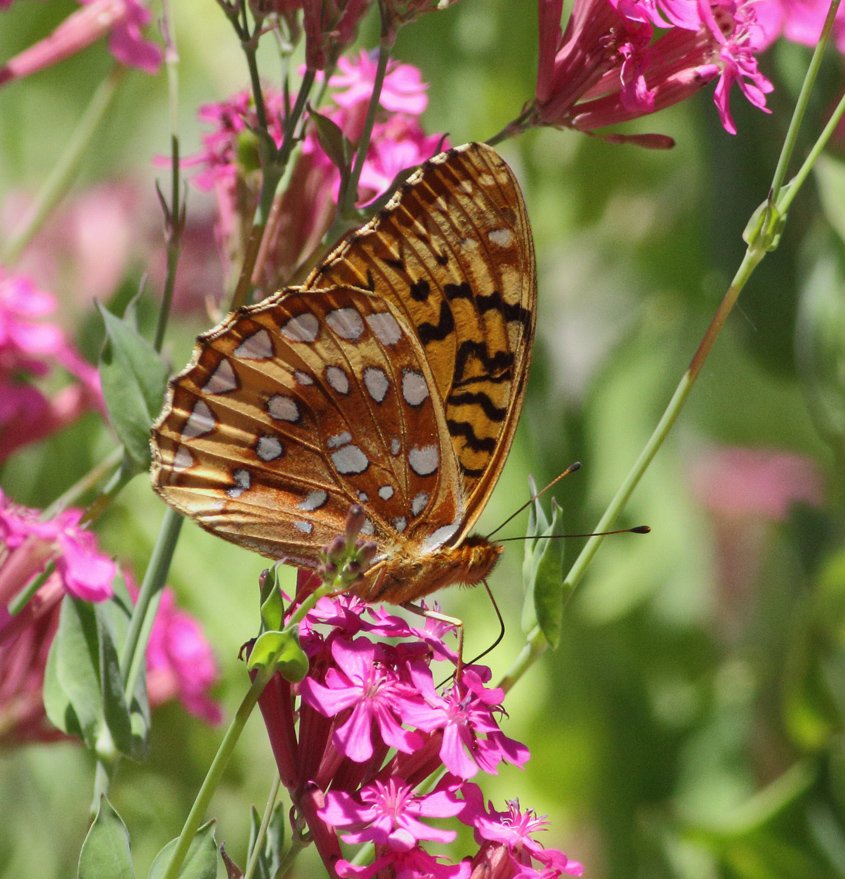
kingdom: Animalia
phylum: Arthropoda
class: Insecta
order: Lepidoptera
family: Nymphalidae
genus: Speyeria
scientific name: Speyeria cybele
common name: Great Spangled Fritillary
